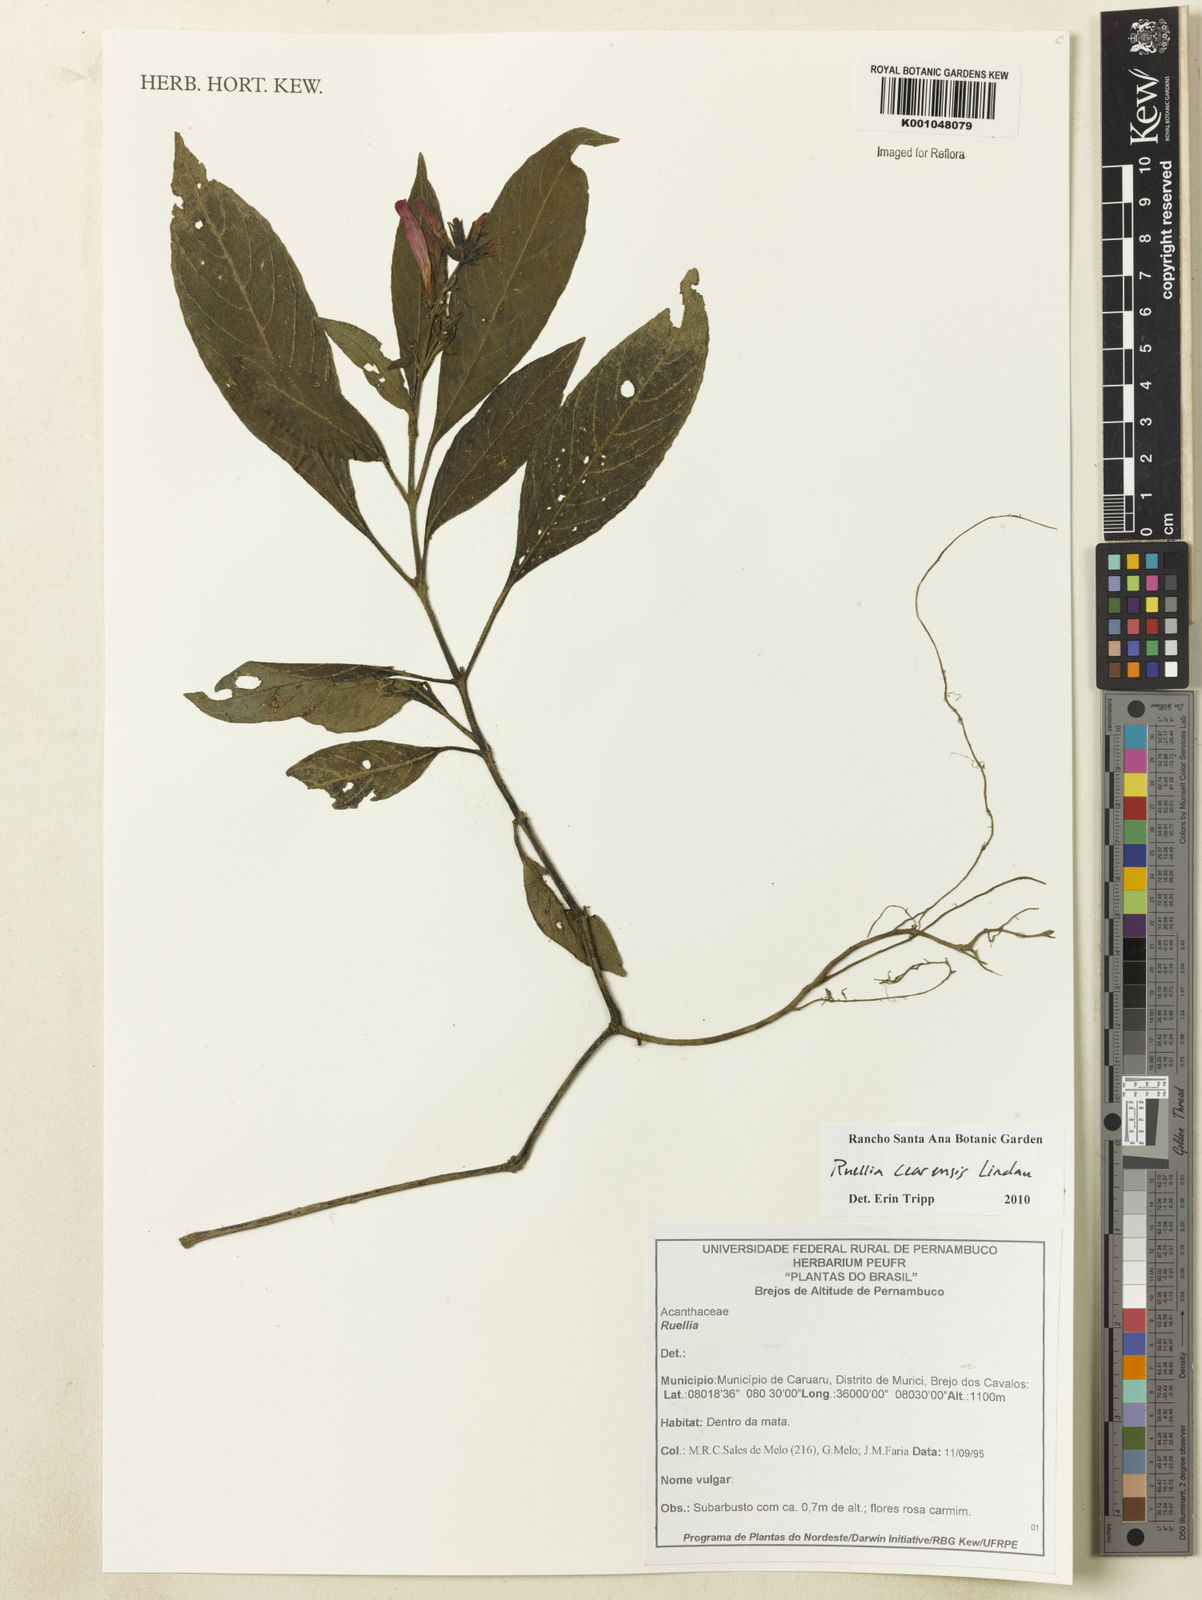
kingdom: Plantae
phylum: Tracheophyta
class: Magnoliopsida
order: Lamiales
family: Acanthaceae
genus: Ruellia
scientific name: Ruellia cearensis
